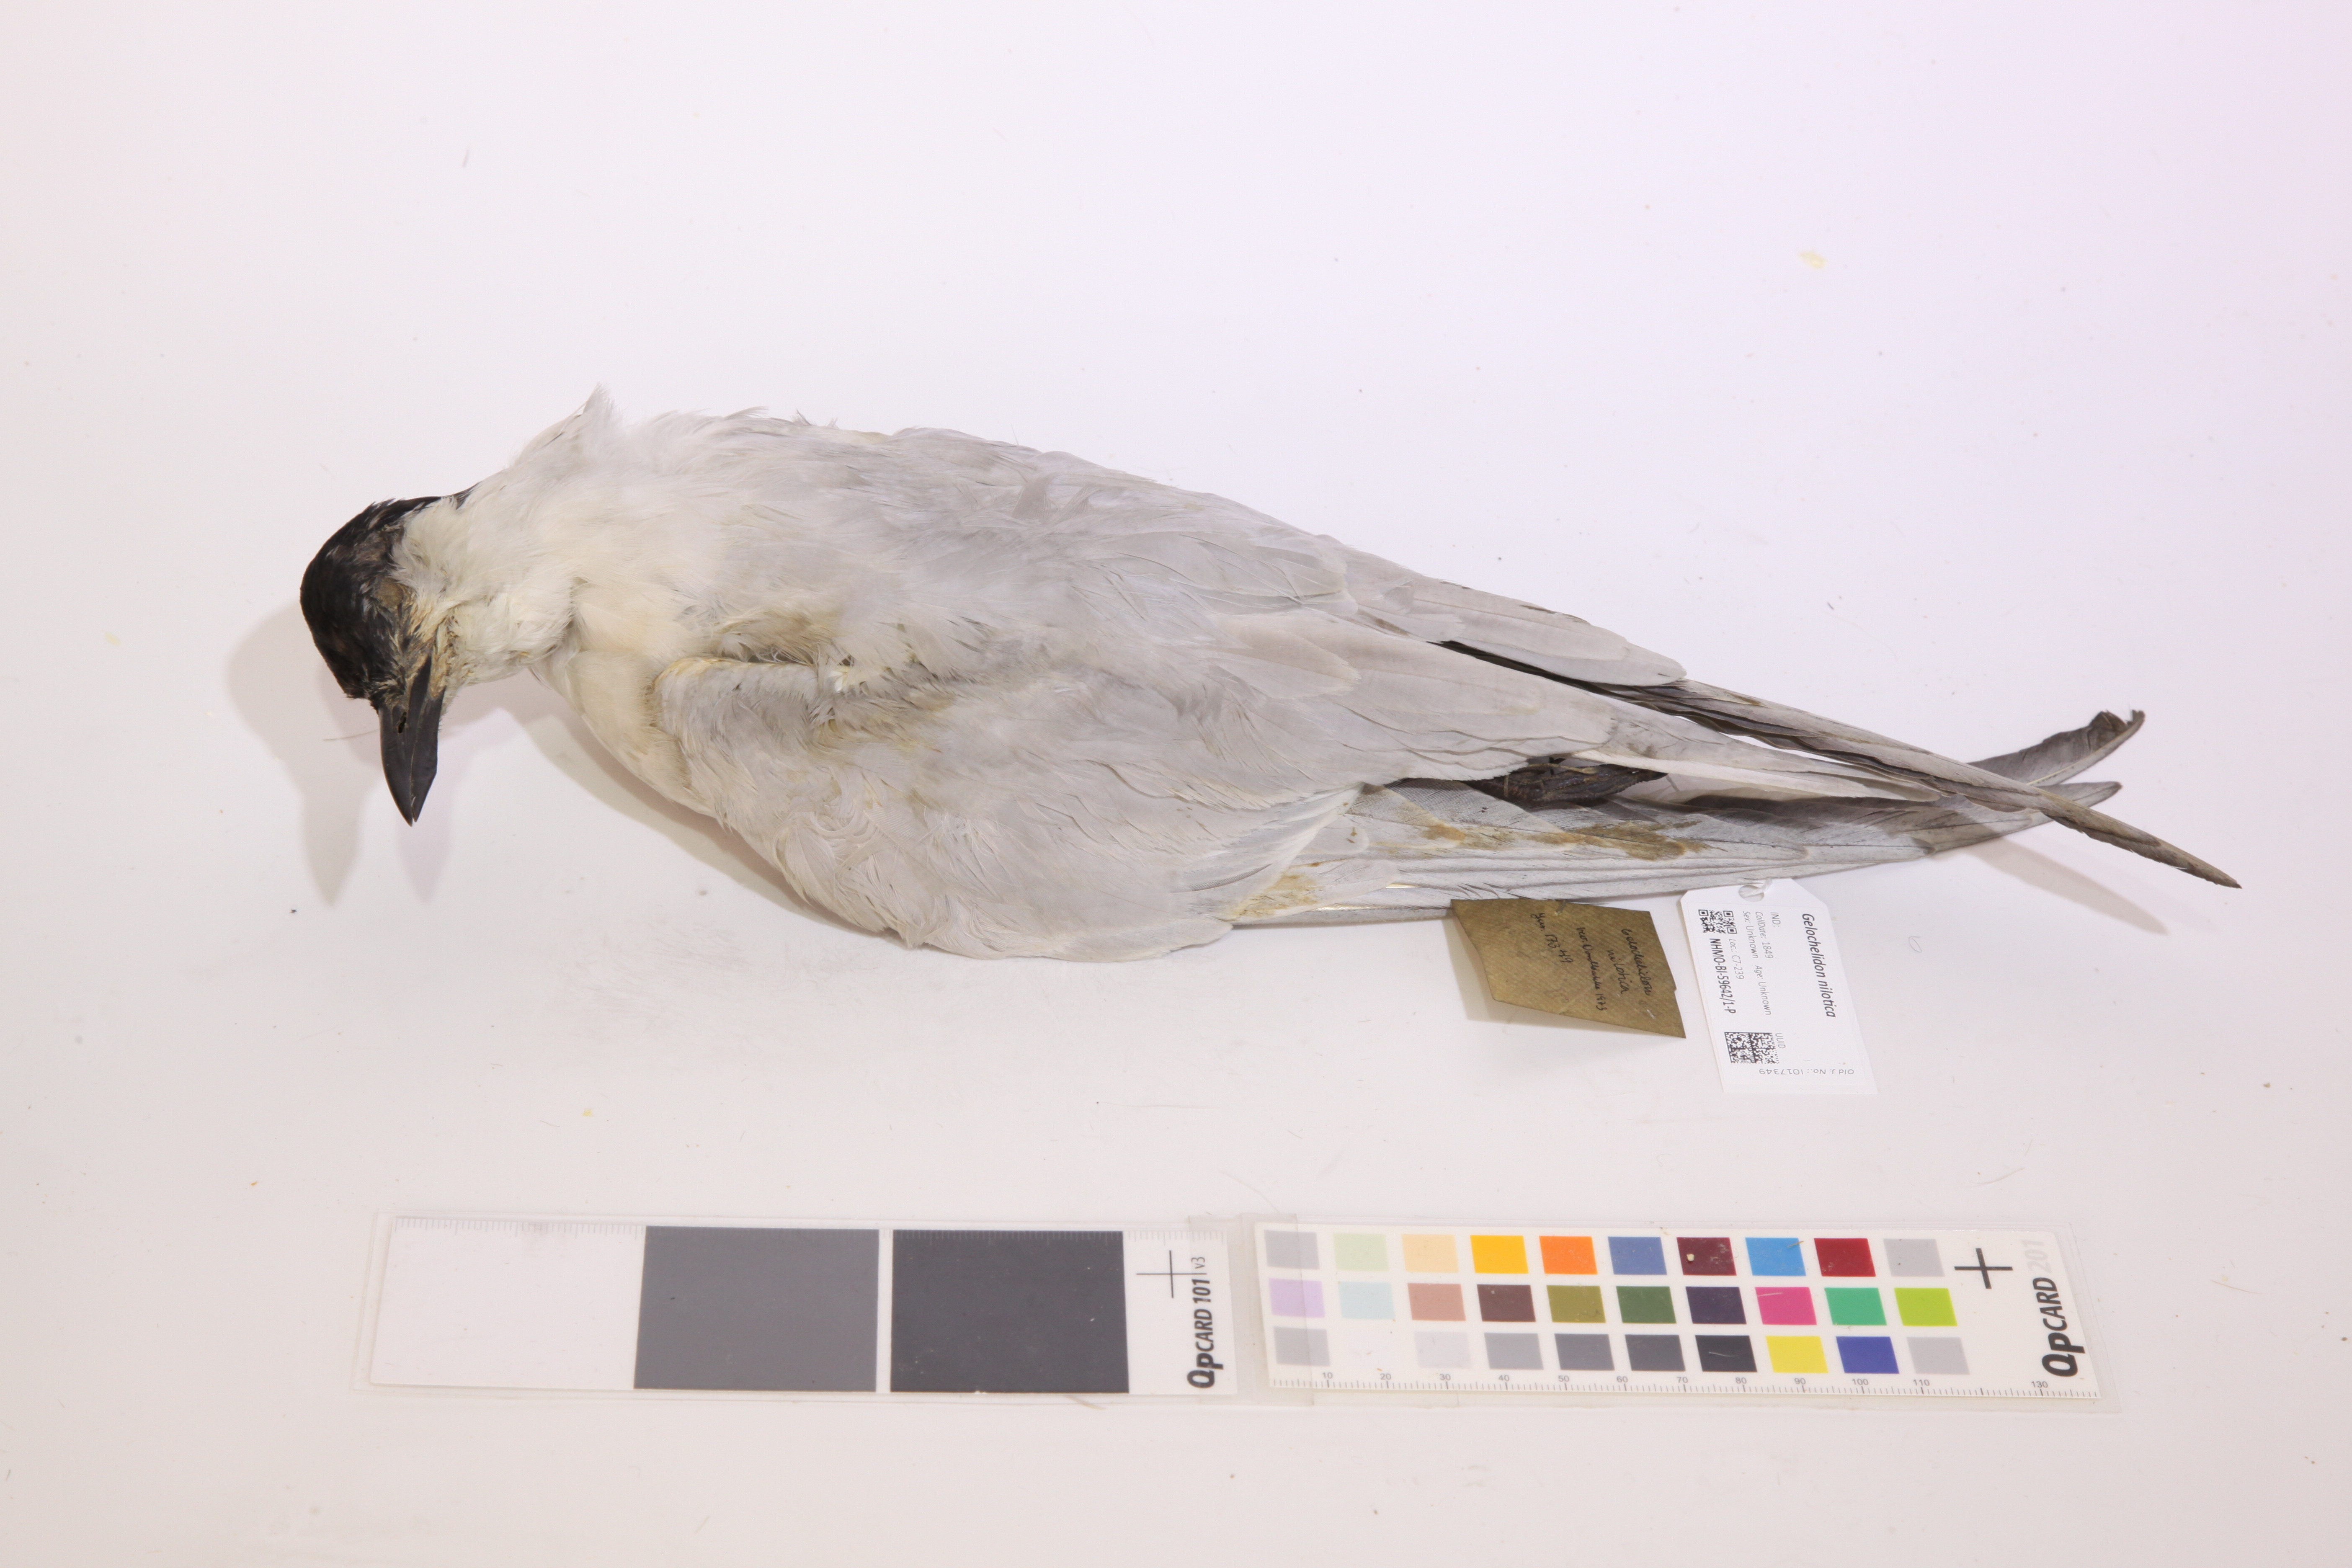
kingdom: Animalia
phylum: Chordata
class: Aves
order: Charadriiformes
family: Laridae
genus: Gelochelidon
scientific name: Gelochelidon nilotica
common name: Gull-billed tern
